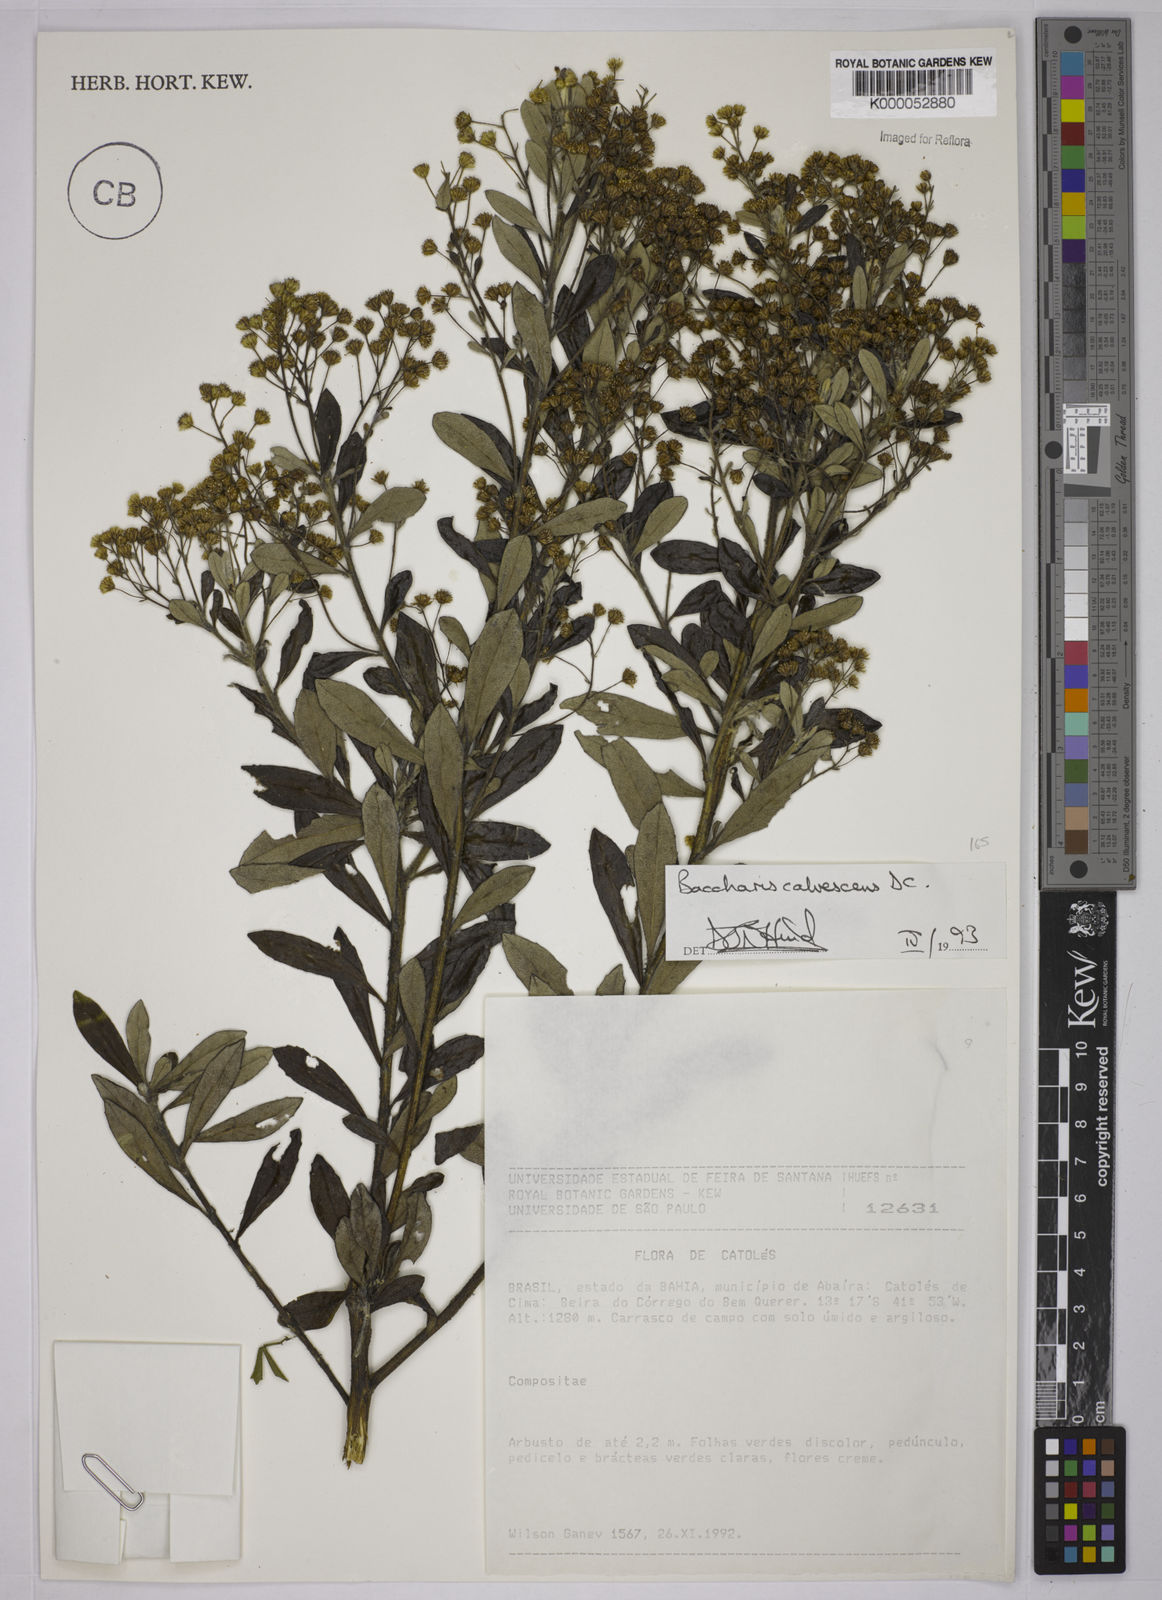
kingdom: Plantae
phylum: Tracheophyta
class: Magnoliopsida
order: Asterales
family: Asteraceae
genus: Baccharis
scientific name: Baccharis rufescens
